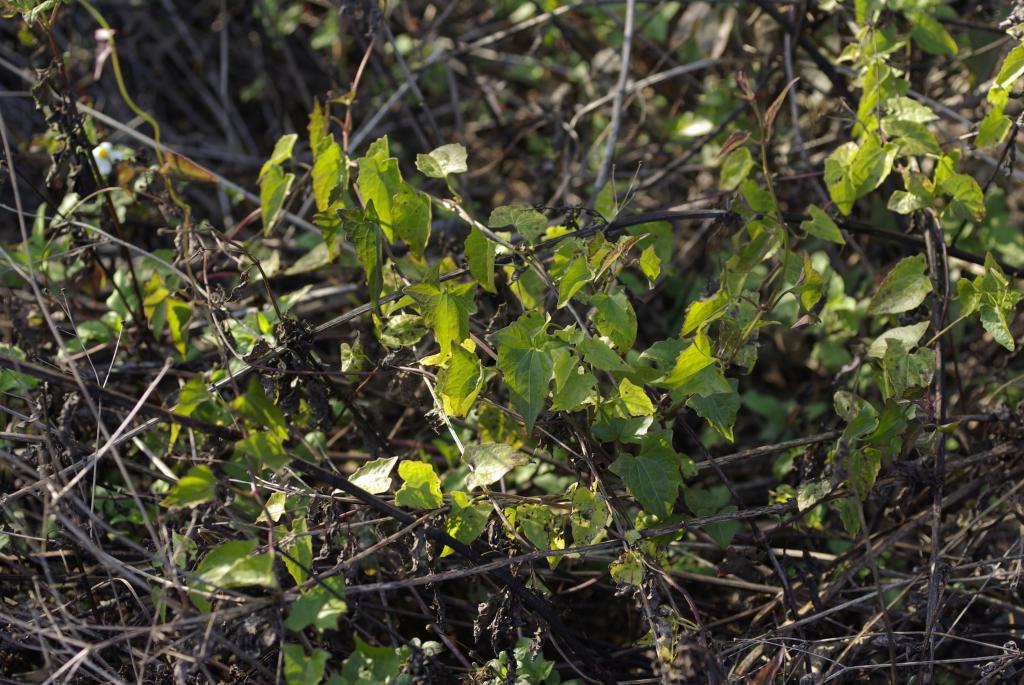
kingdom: Plantae
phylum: Tracheophyta
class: Magnoliopsida
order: Asterales
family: Asteraceae
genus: Mikania
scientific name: Mikania micrantha
